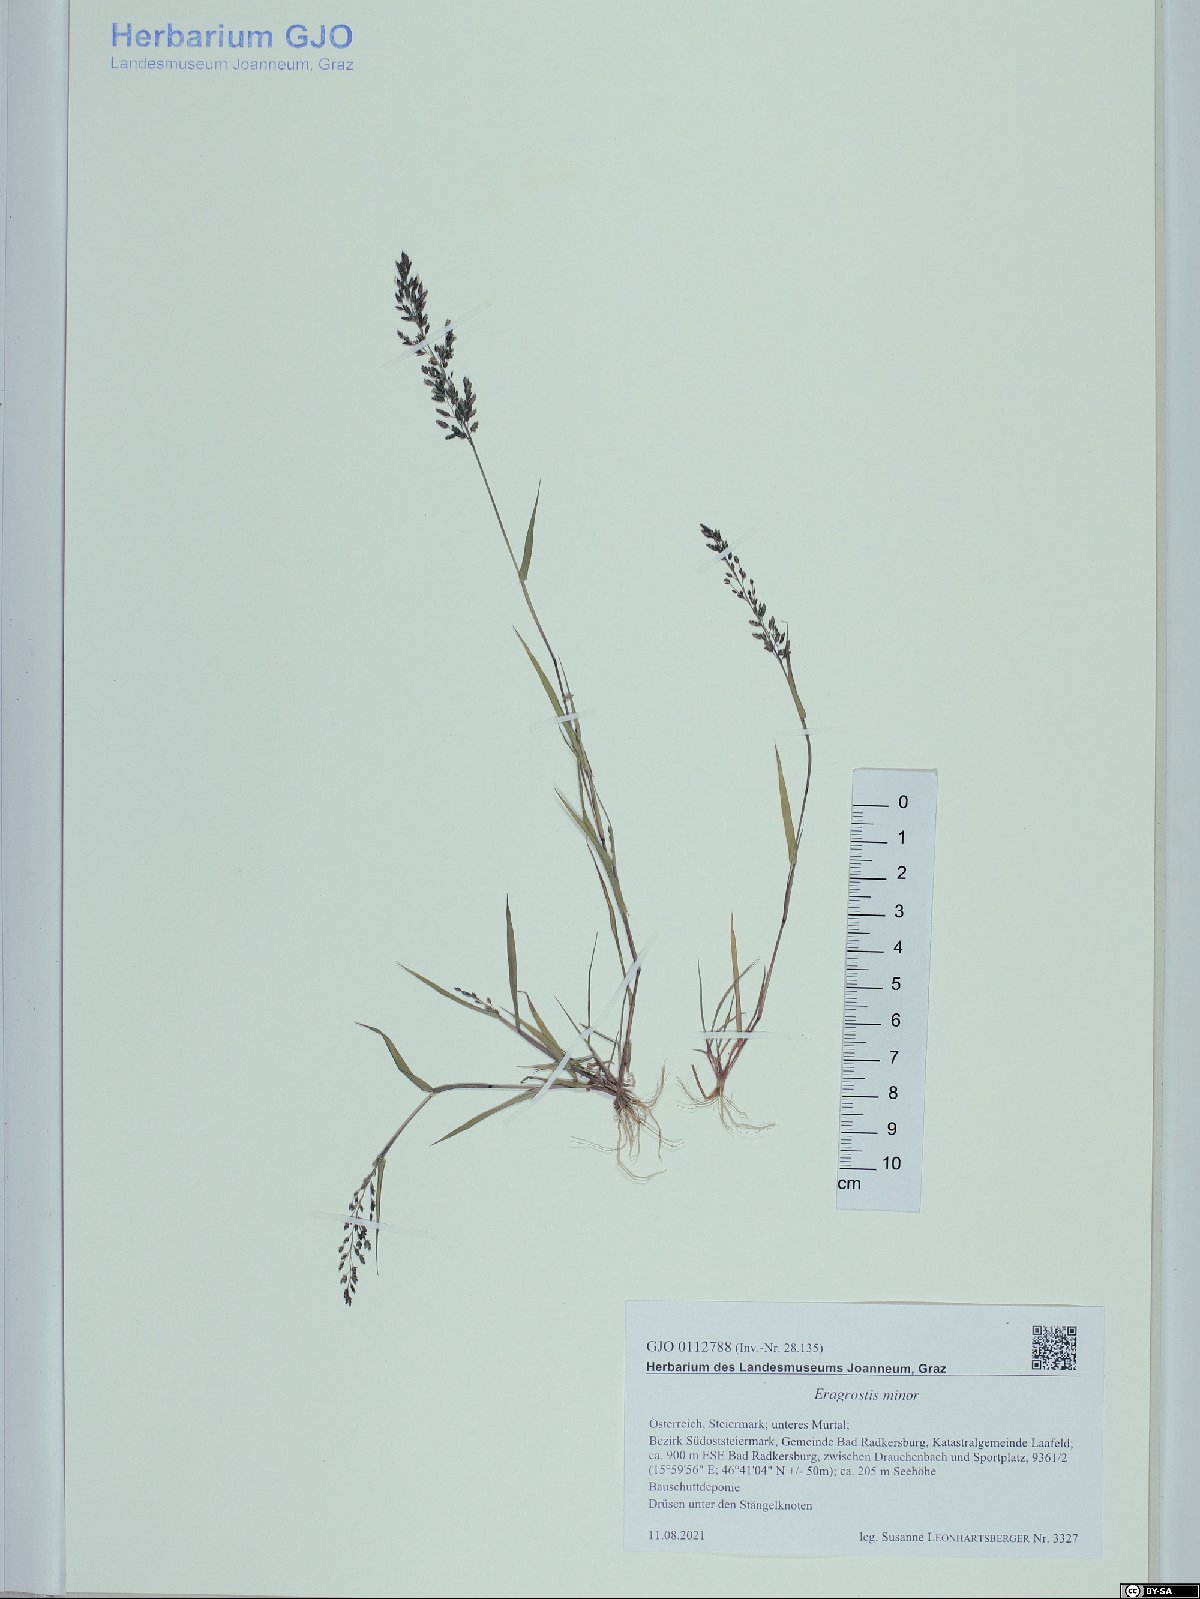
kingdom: Plantae
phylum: Tracheophyta
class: Liliopsida
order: Poales
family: Poaceae
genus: Eragrostis
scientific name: Eragrostis minor
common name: Small love-grass
